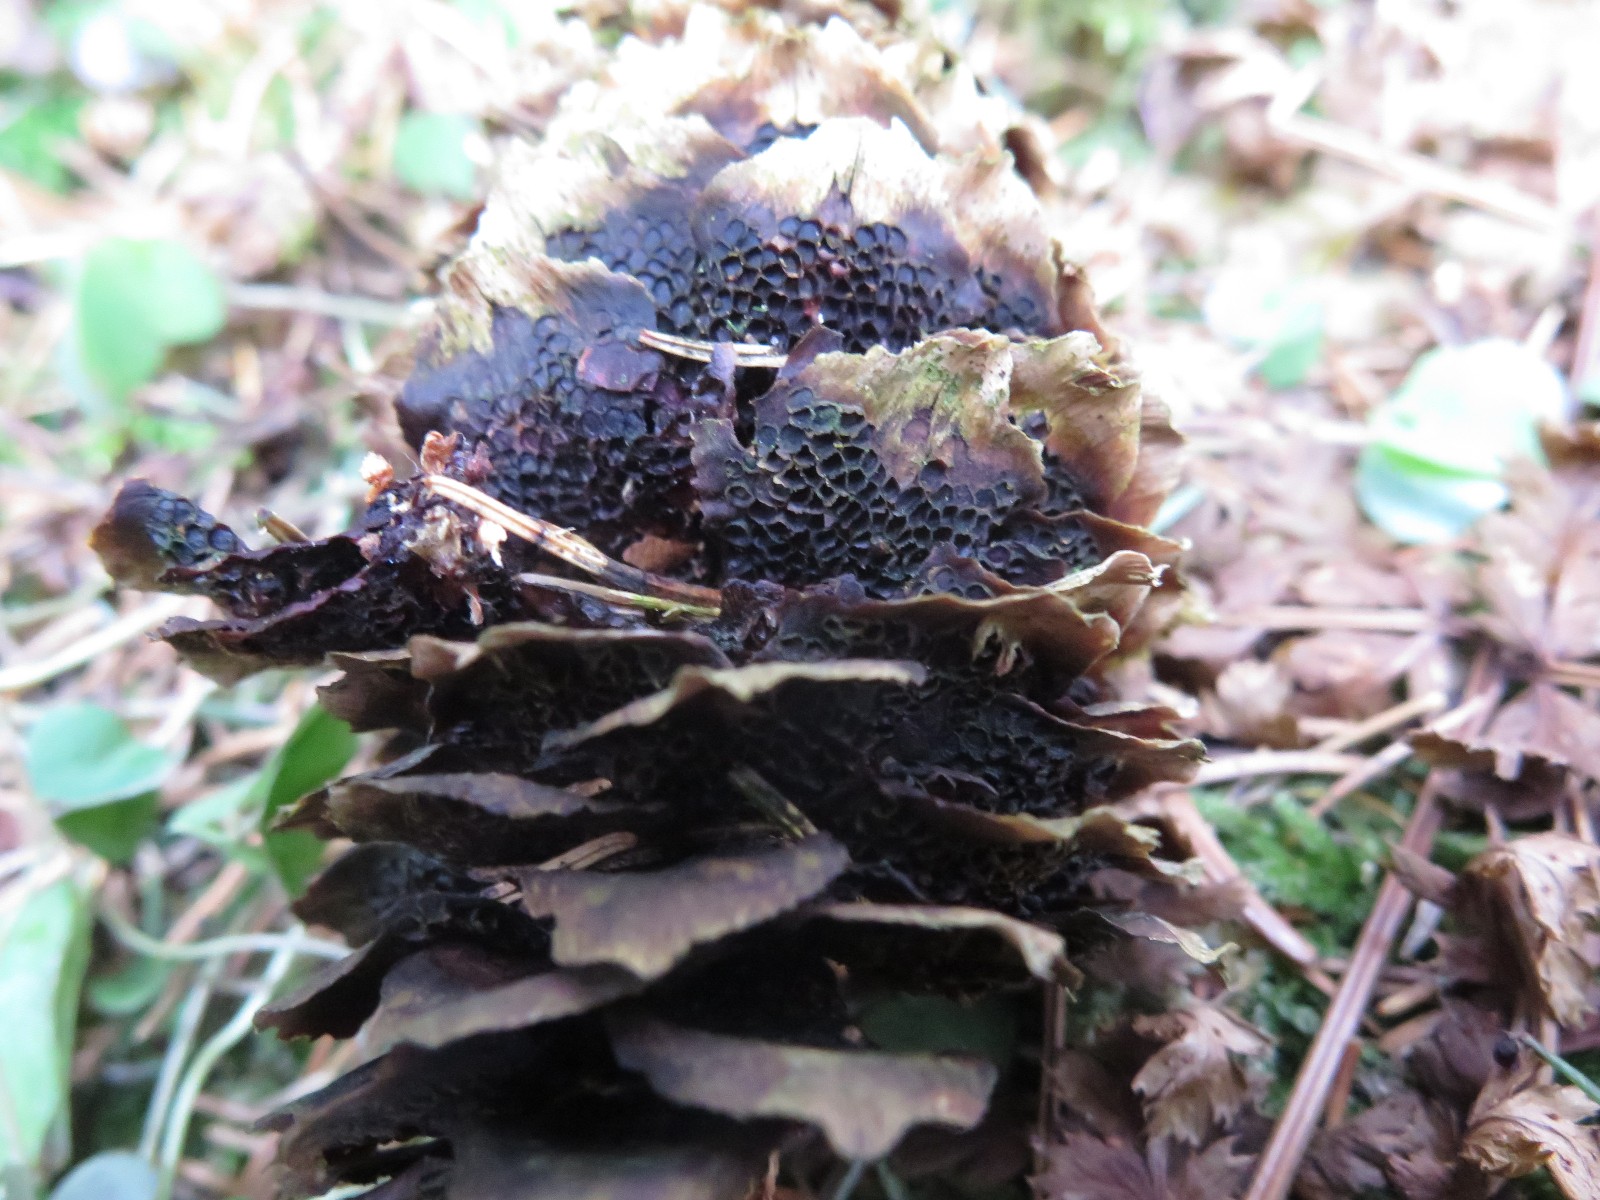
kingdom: Fungi
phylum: Basidiomycota
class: Pucciniomycetes
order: Pucciniales
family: Pucciniastraceae
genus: Thekopsora
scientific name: Thekopsora areolata
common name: grankogle-nålerust
